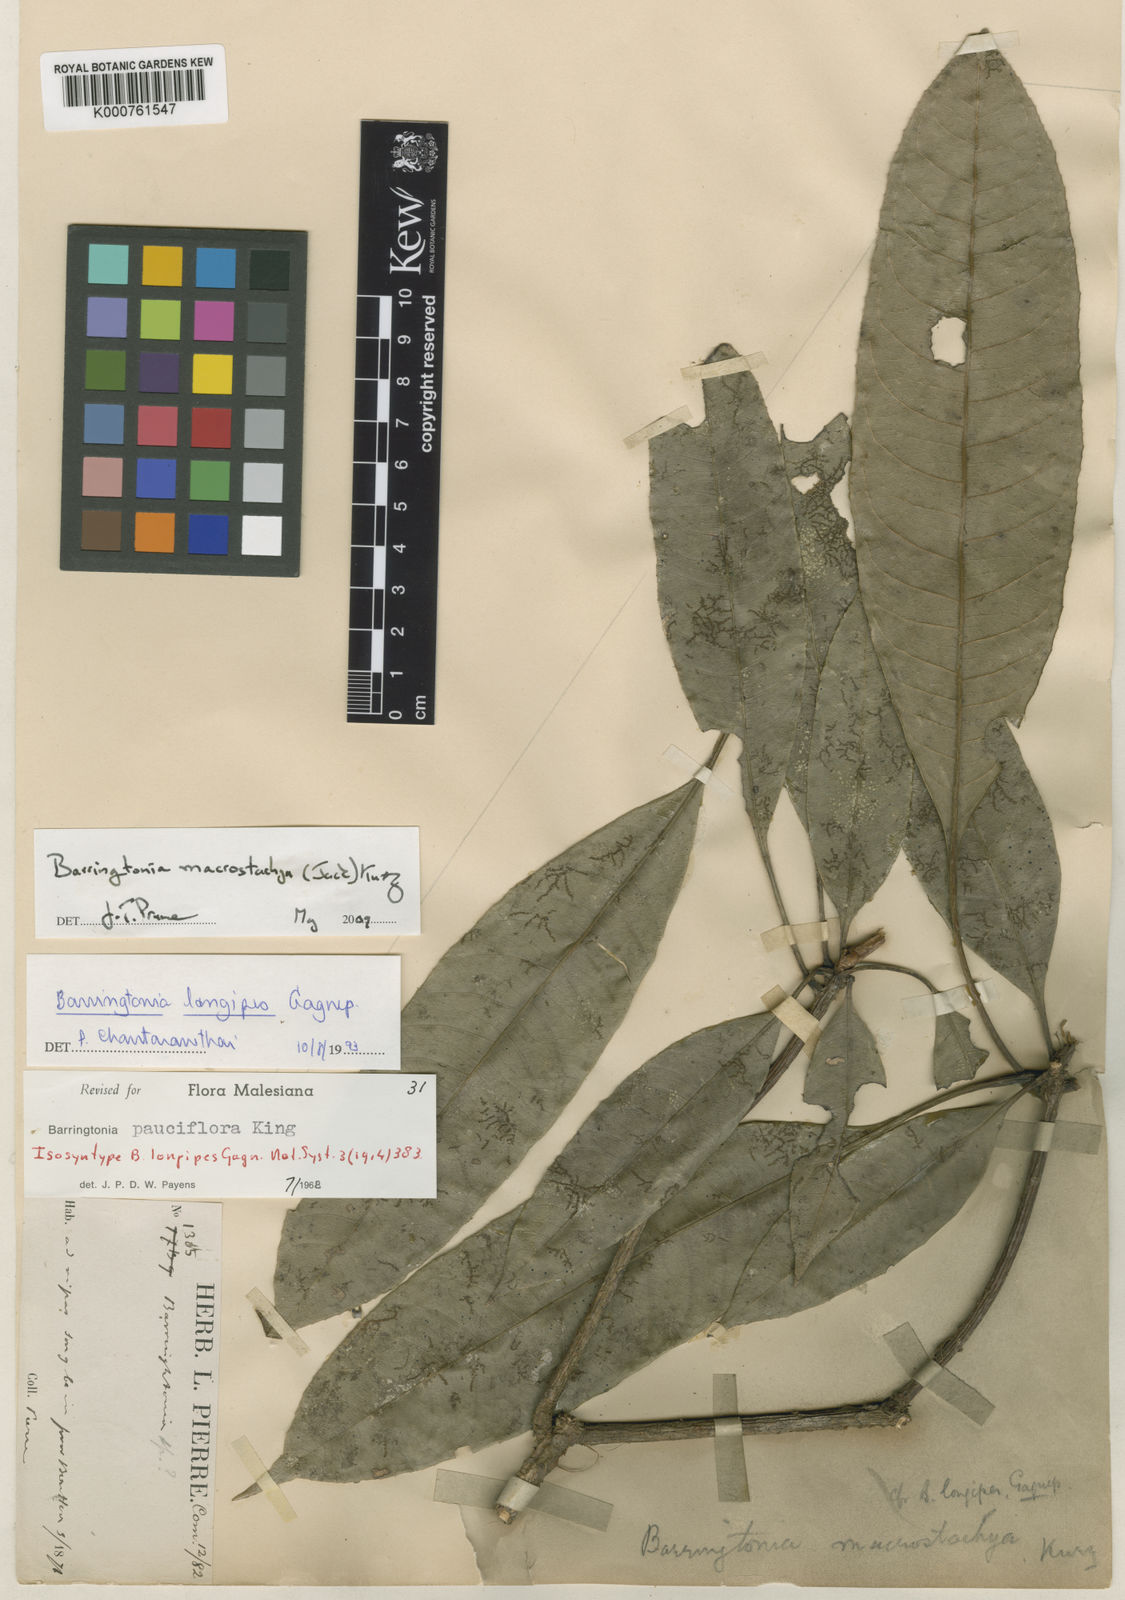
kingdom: Plantae
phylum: Tracheophyta
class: Magnoliopsida
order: Ericales
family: Lecythidaceae
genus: Barringtonia
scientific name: Barringtonia macrostachya
